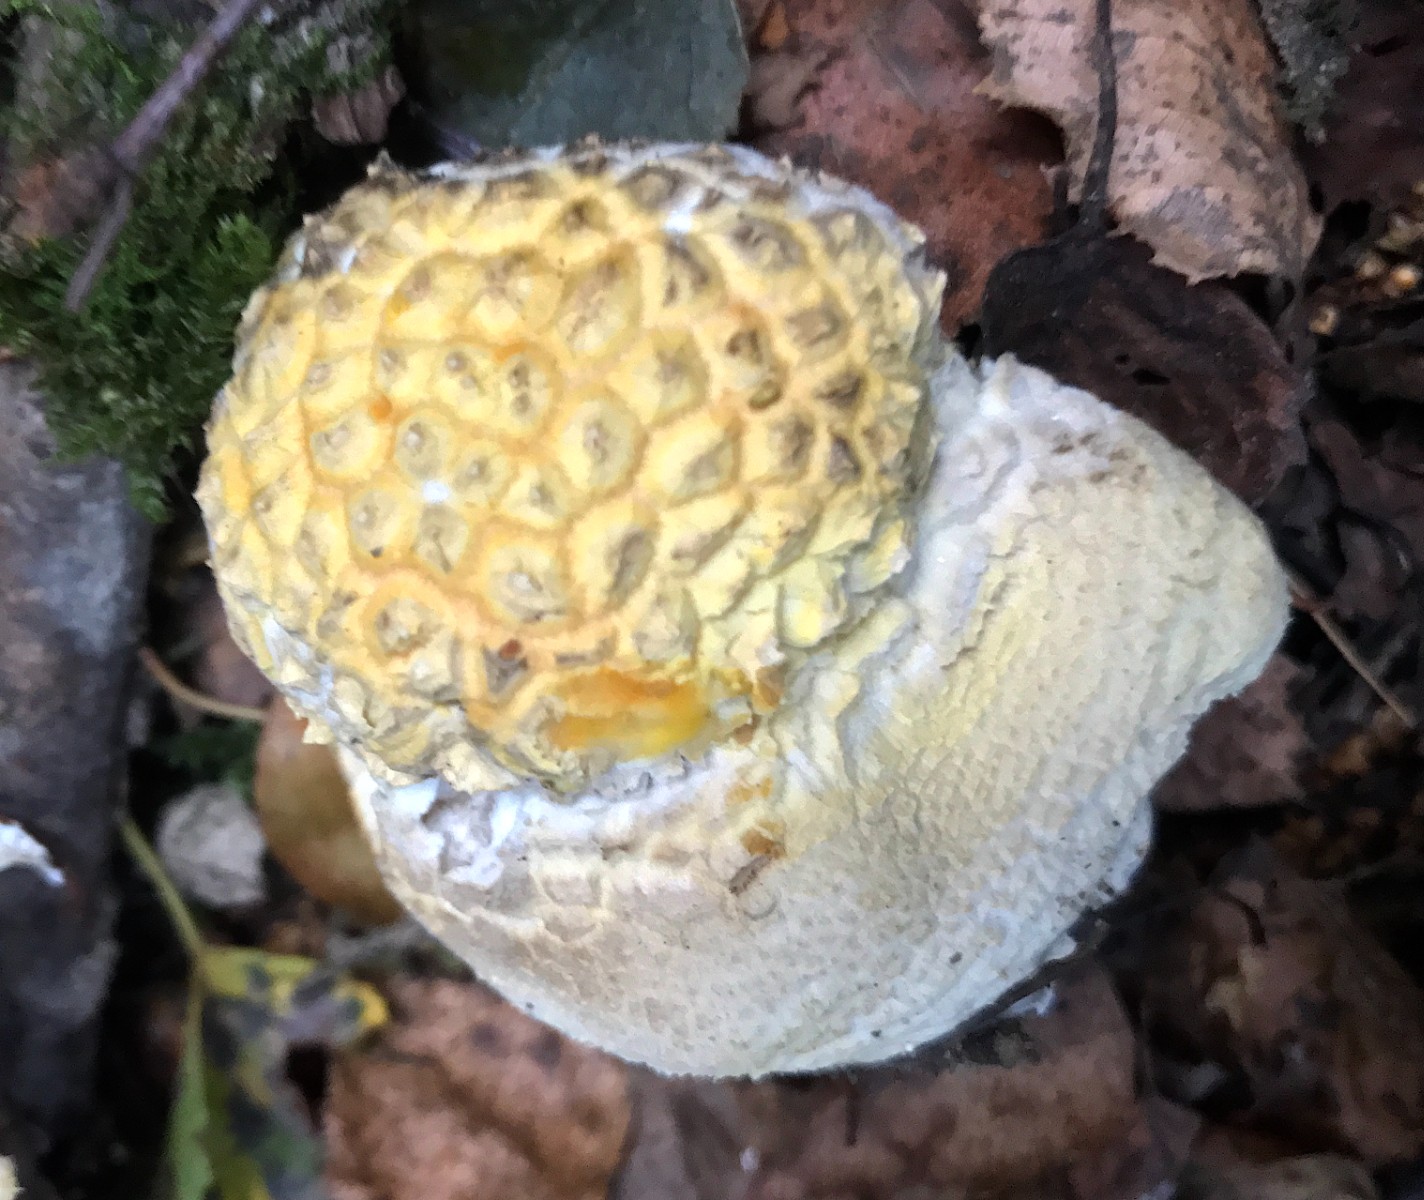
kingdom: Fungi
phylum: Ascomycota
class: Sordariomycetes
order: Hypocreales
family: Hypocreaceae
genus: Hypomyces
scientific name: Hypomyces
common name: snylteskorpe
